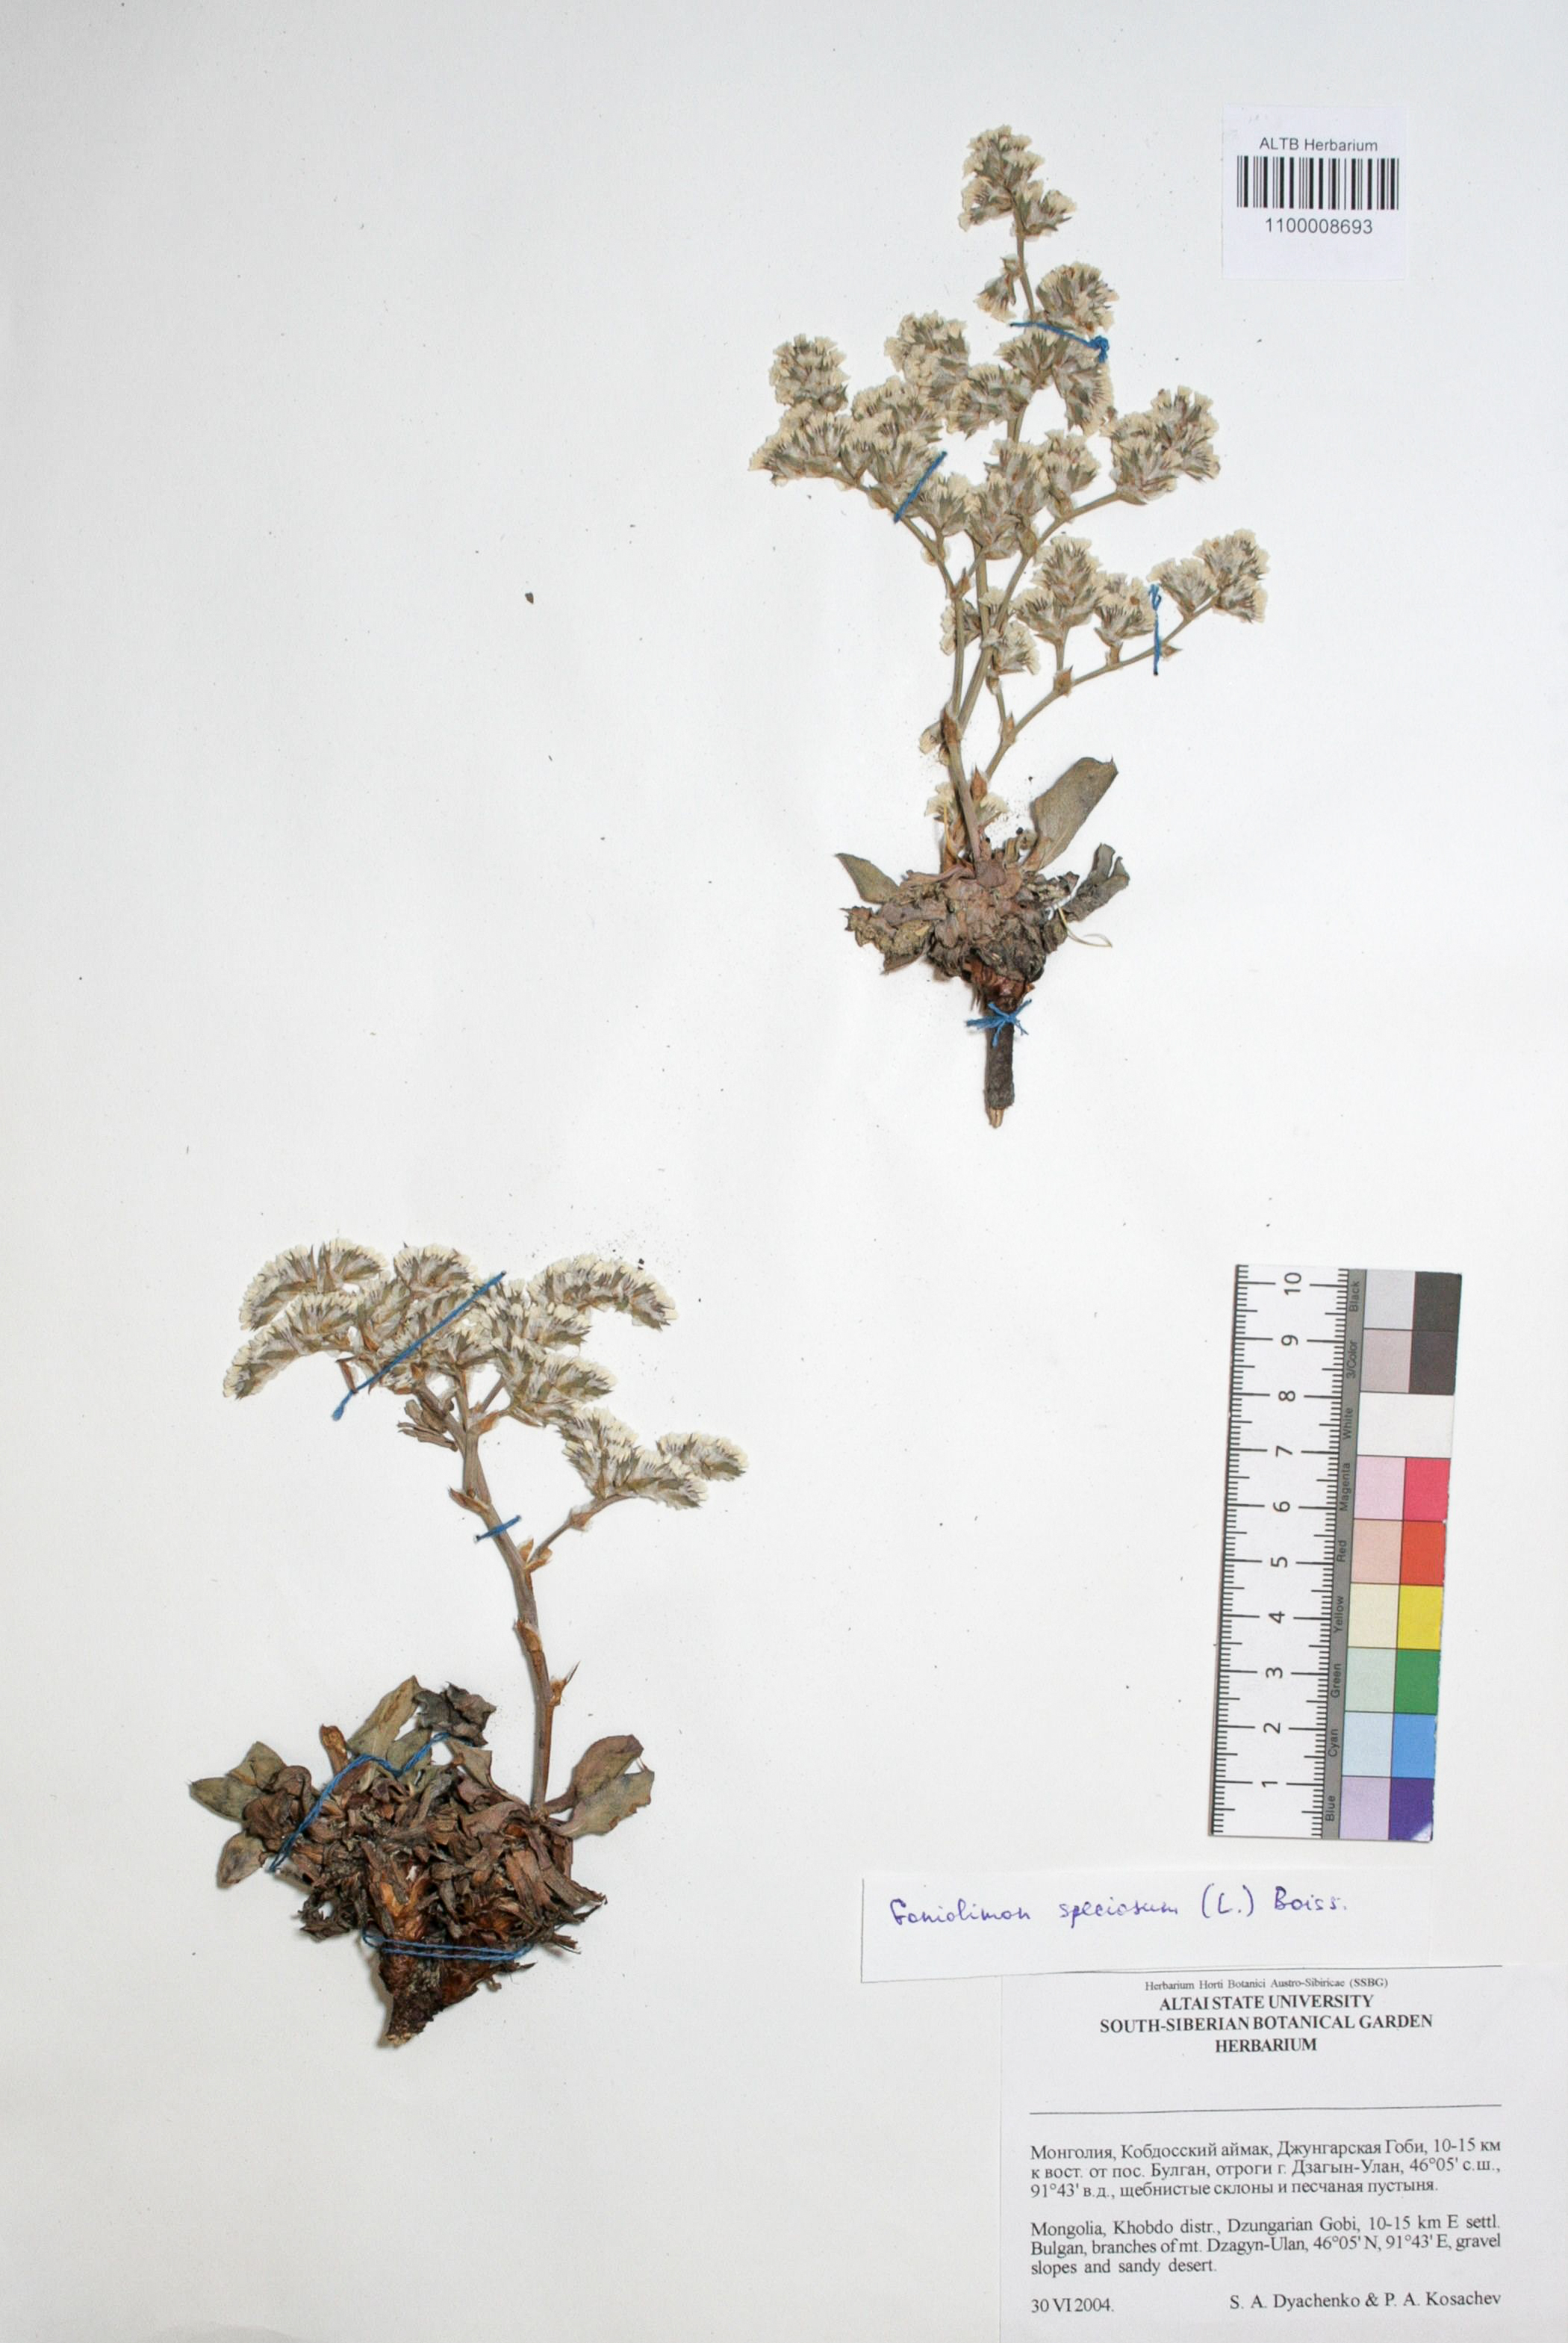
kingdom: Plantae
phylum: Tracheophyta
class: Magnoliopsida
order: Caryophyllales
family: Plumbaginaceae
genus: Goniolimon
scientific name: Goniolimon speciosum
